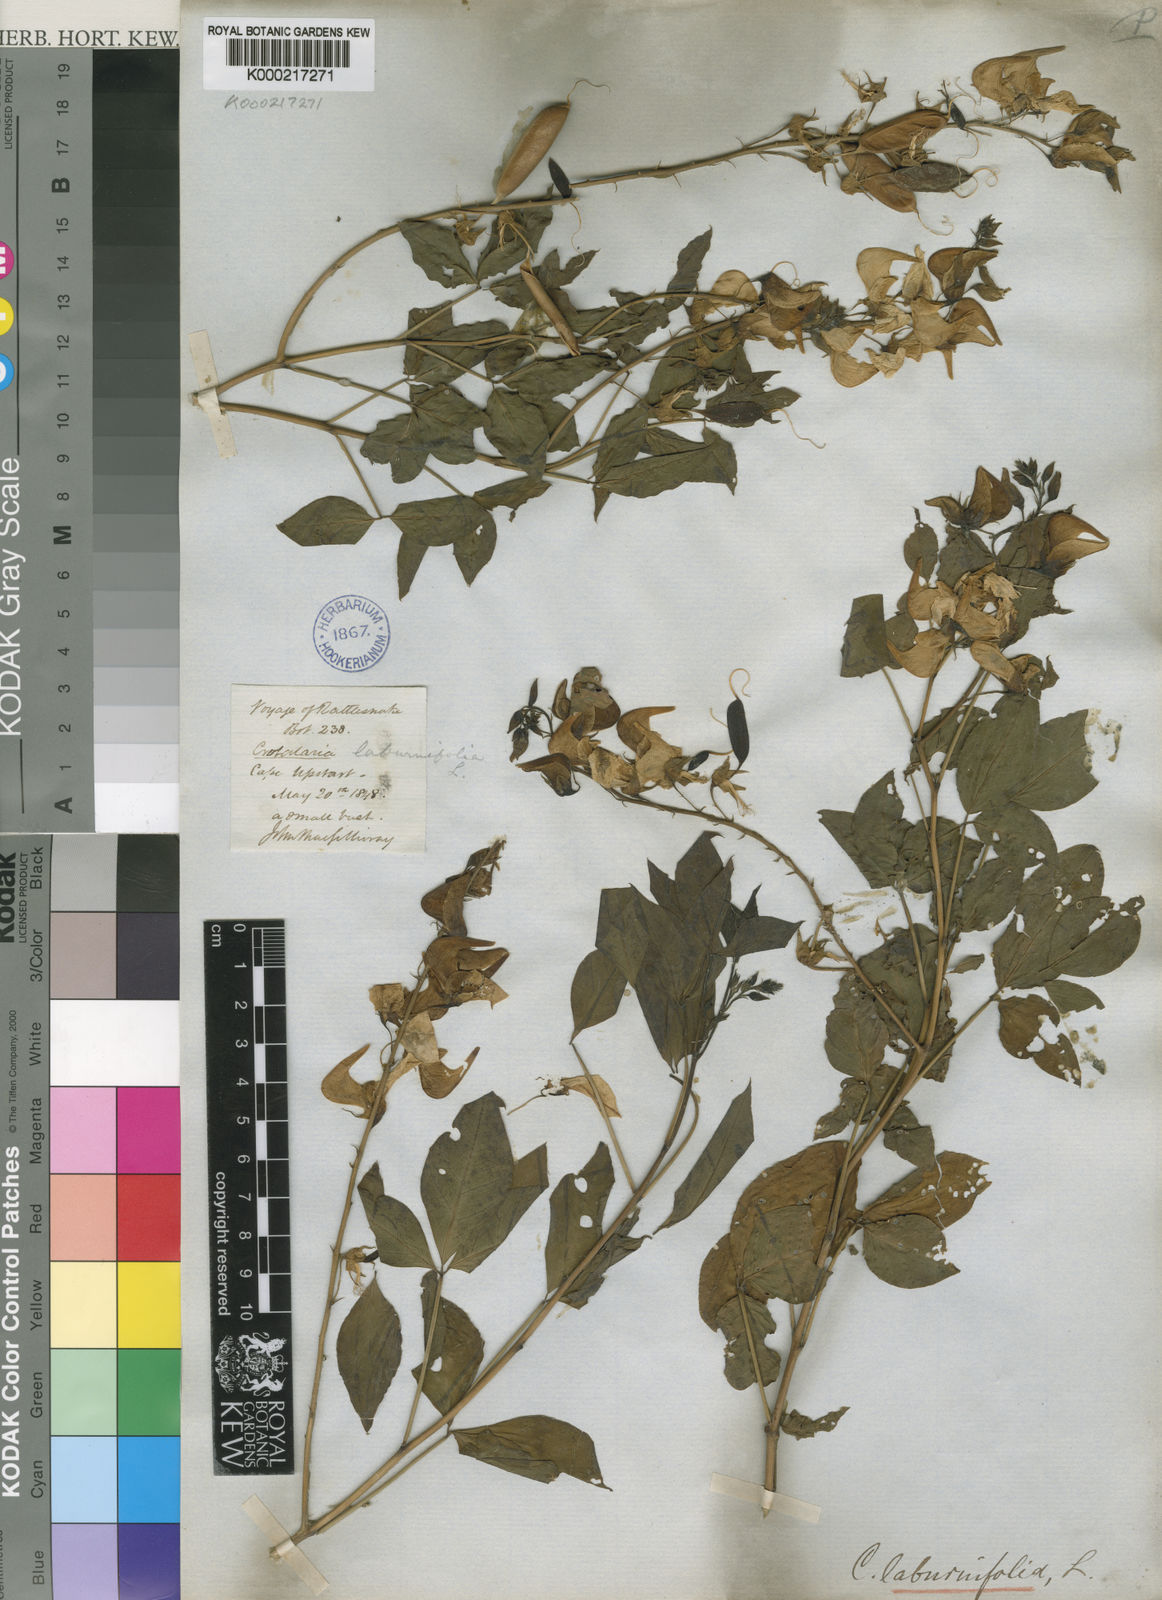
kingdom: Plantae
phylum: Tracheophyta
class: Magnoliopsida
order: Fabales
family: Fabaceae
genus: Crotalaria
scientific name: Crotalaria laburnifolia
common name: Birdflower
